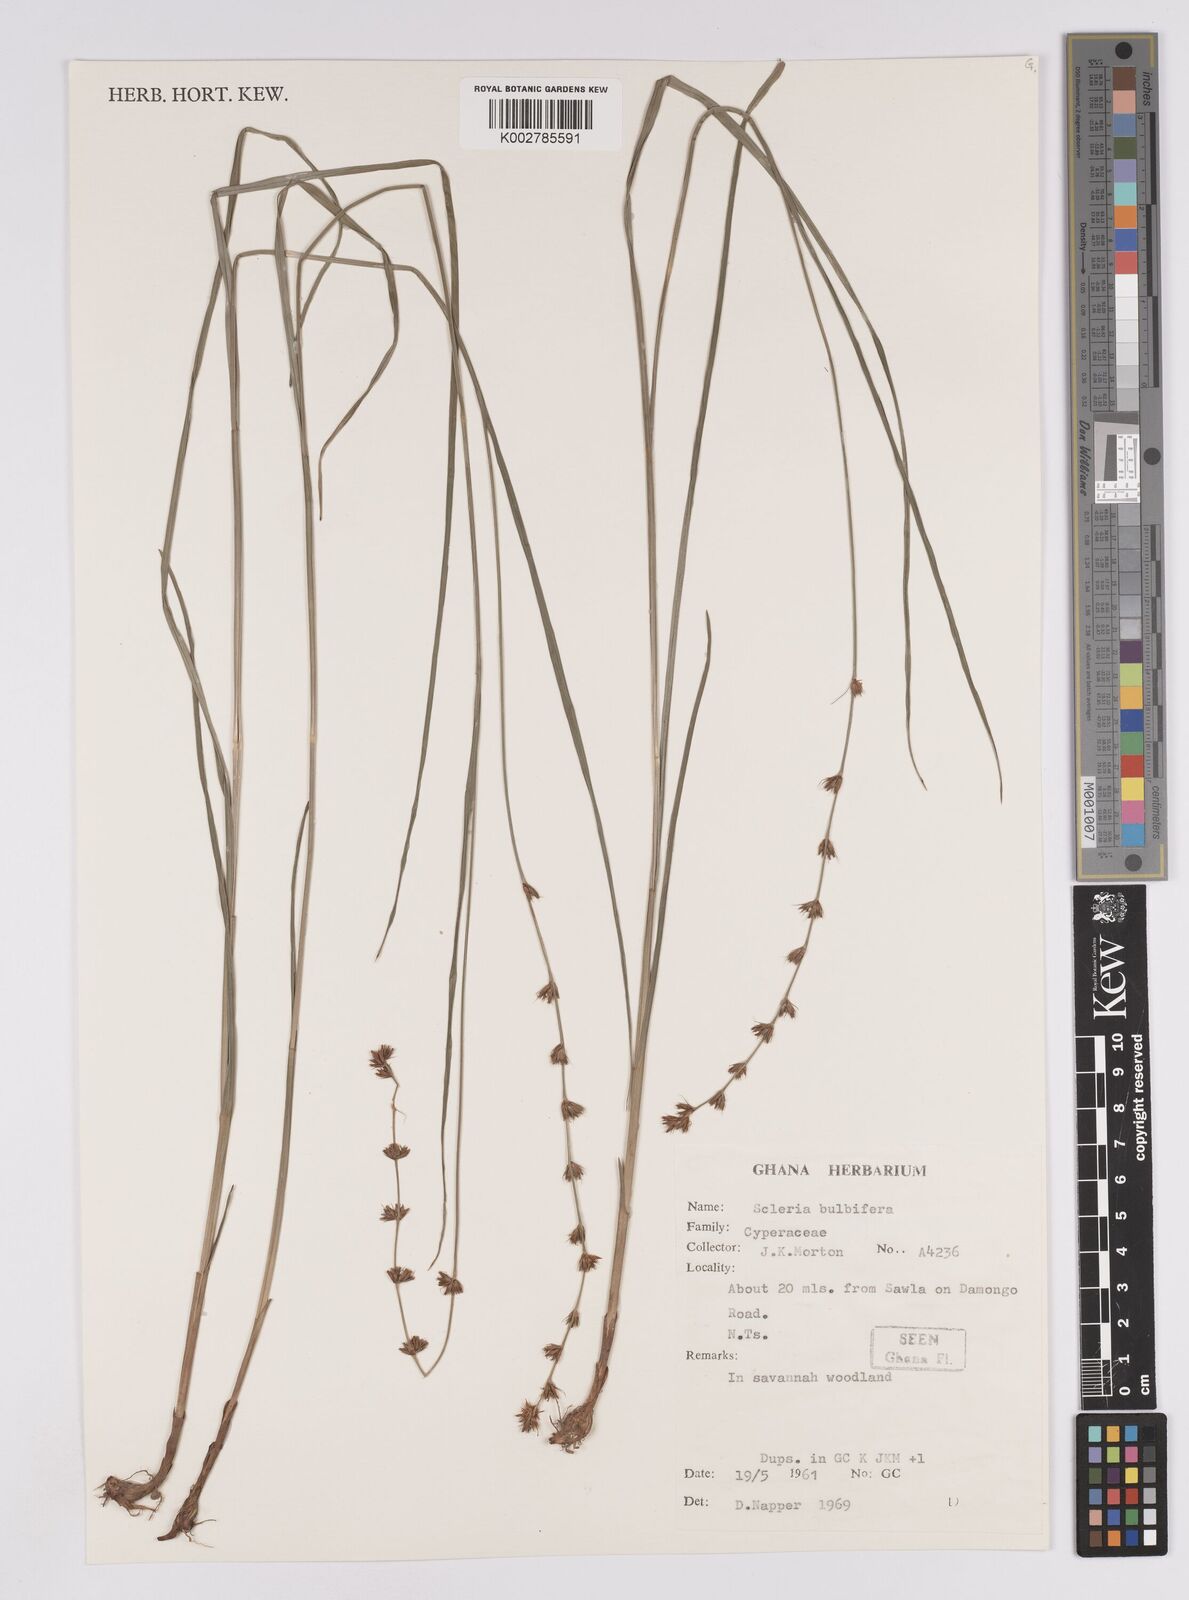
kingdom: Plantae
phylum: Tracheophyta
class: Liliopsida
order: Poales
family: Cyperaceae
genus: Scleria
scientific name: Scleria bulbifera
